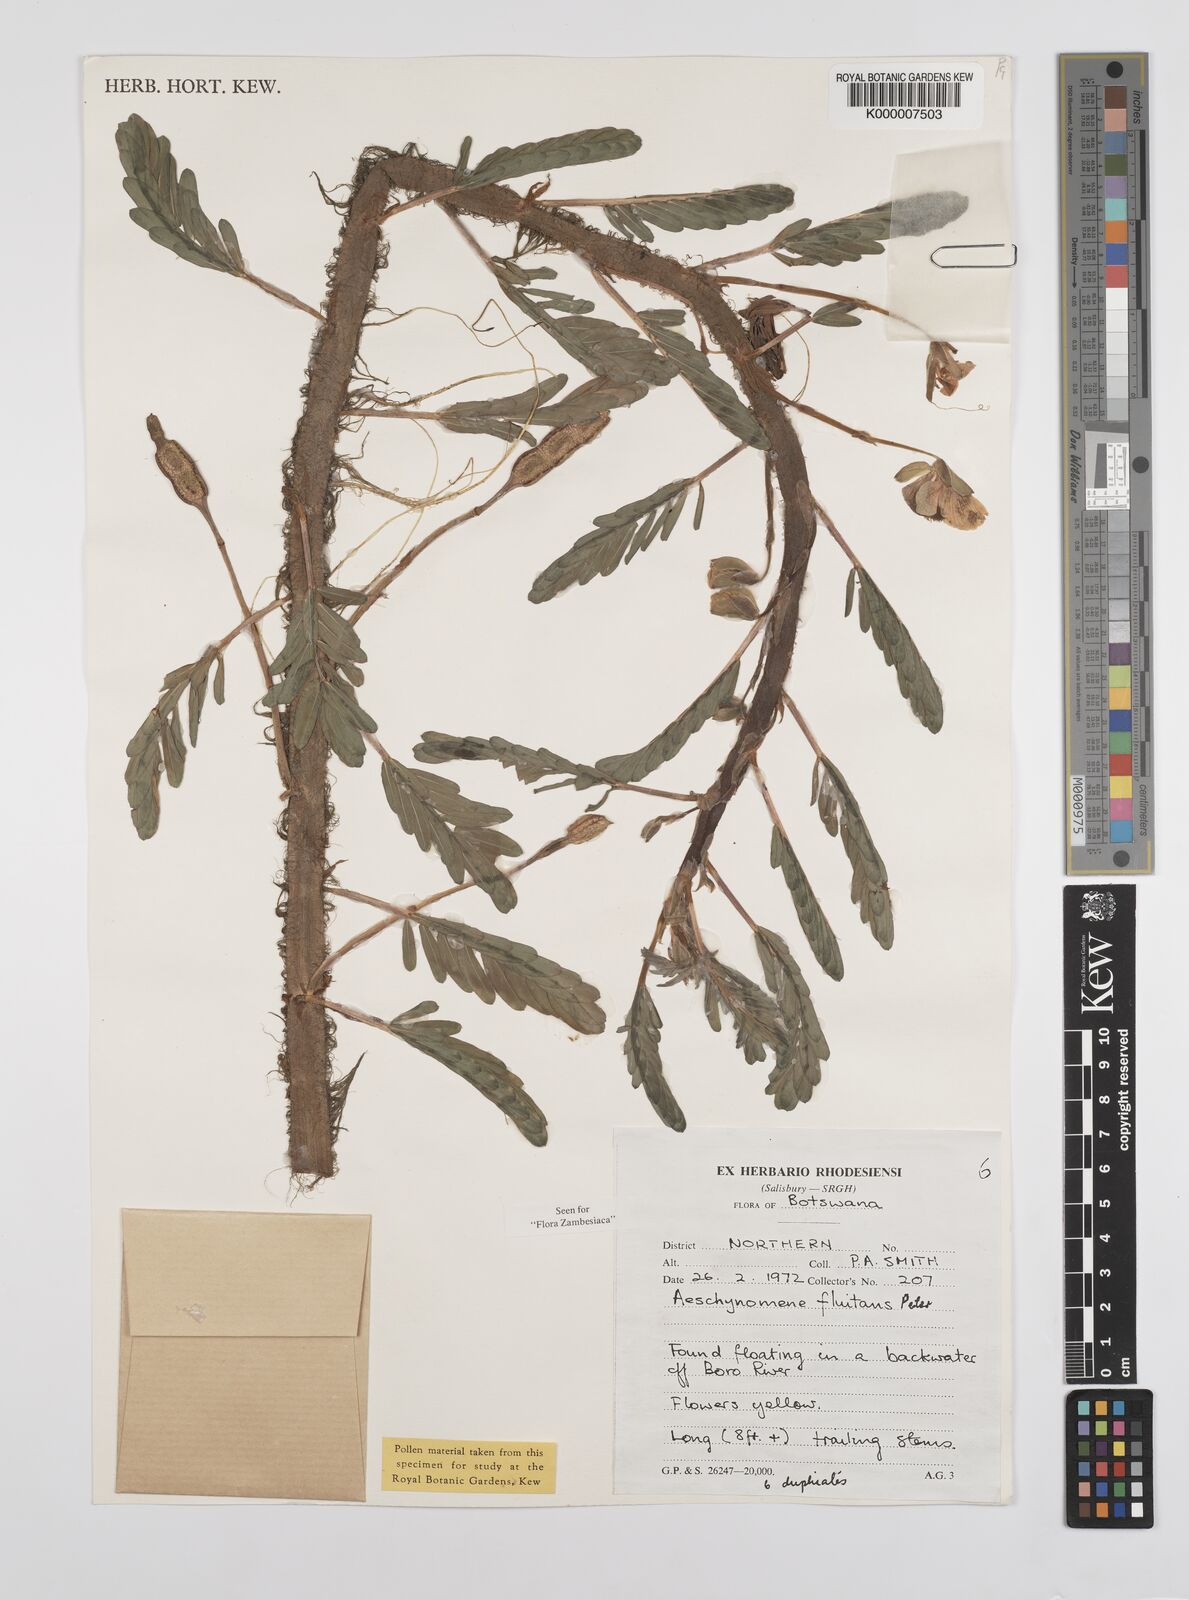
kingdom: Plantae
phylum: Tracheophyta
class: Magnoliopsida
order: Fabales
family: Fabaceae
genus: Aeschynomene
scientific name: Aeschynomene fluitans
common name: Giant water sensitive plant
